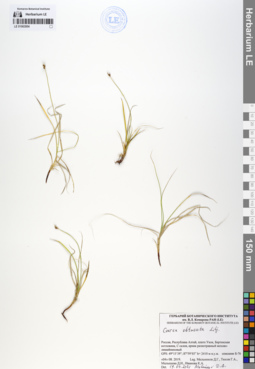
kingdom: Plantae
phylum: Tracheophyta
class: Liliopsida
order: Poales
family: Cyperaceae
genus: Carex
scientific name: Carex obtusata
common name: Blunt sedge
